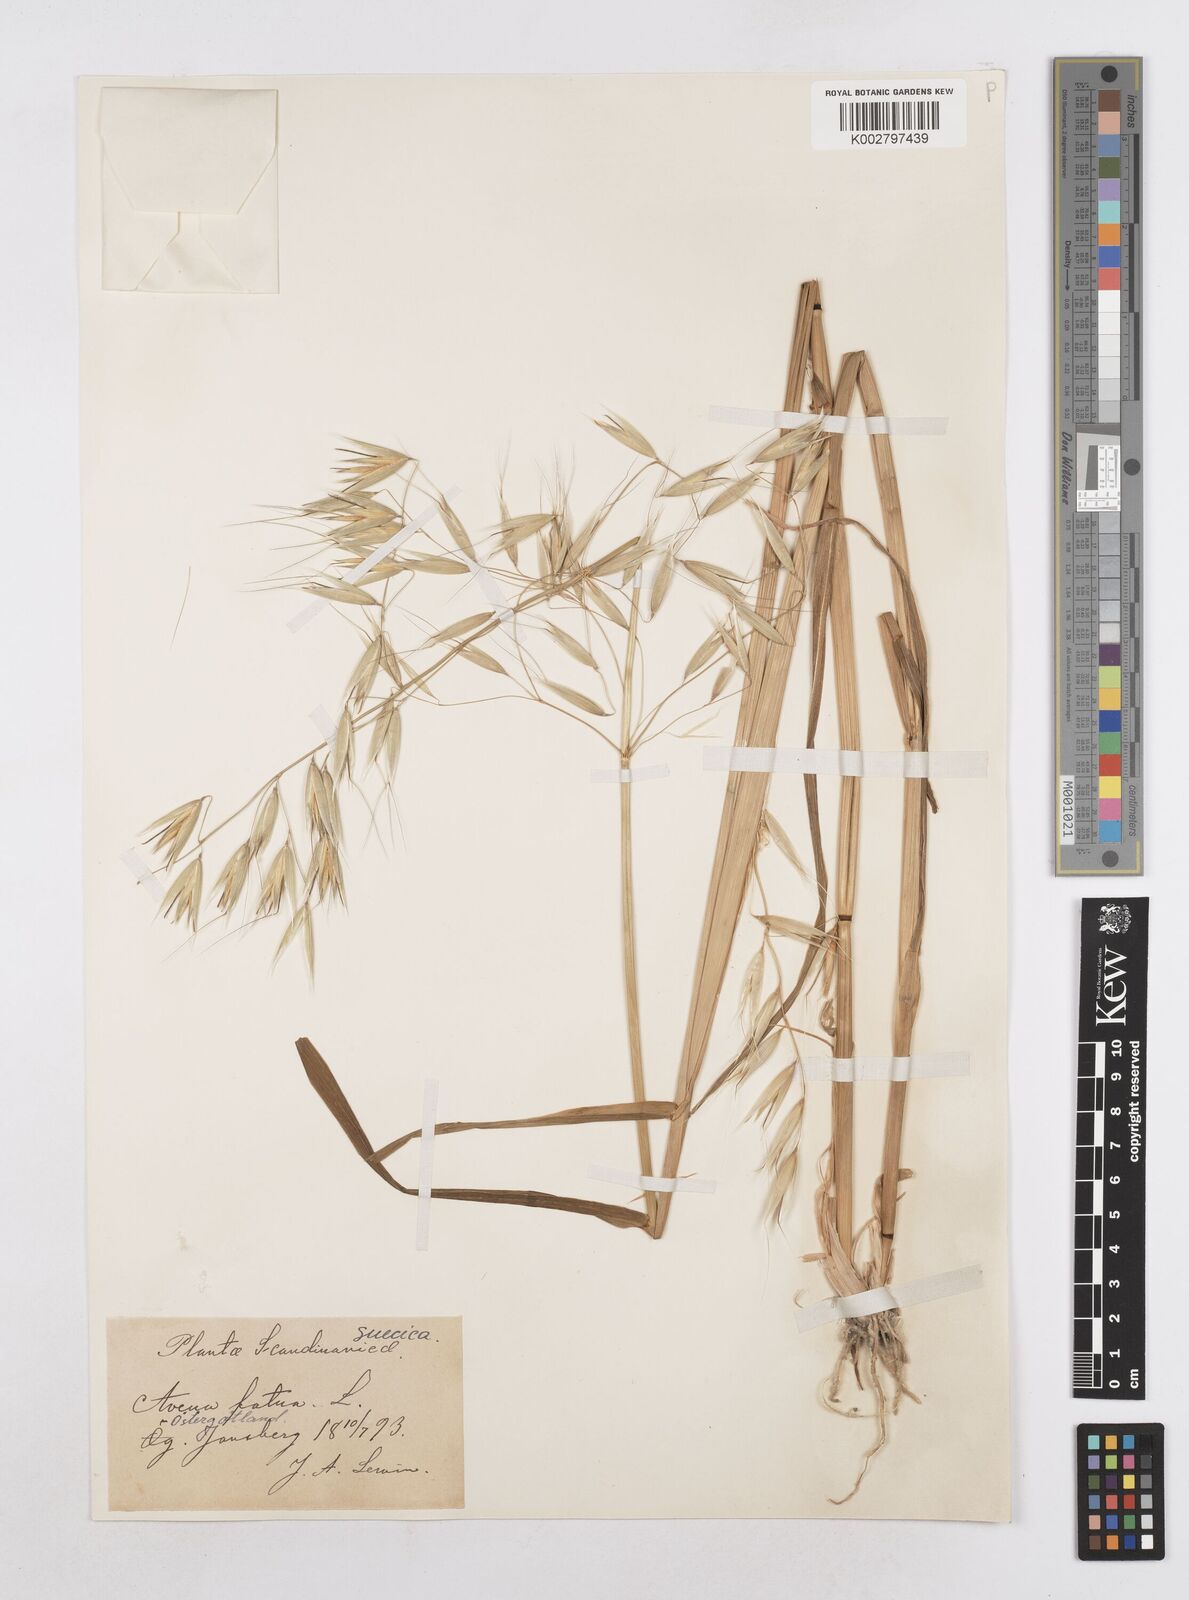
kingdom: Plantae
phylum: Tracheophyta
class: Liliopsida
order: Poales
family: Poaceae
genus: Avena
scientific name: Avena fatua
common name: Wild oat
